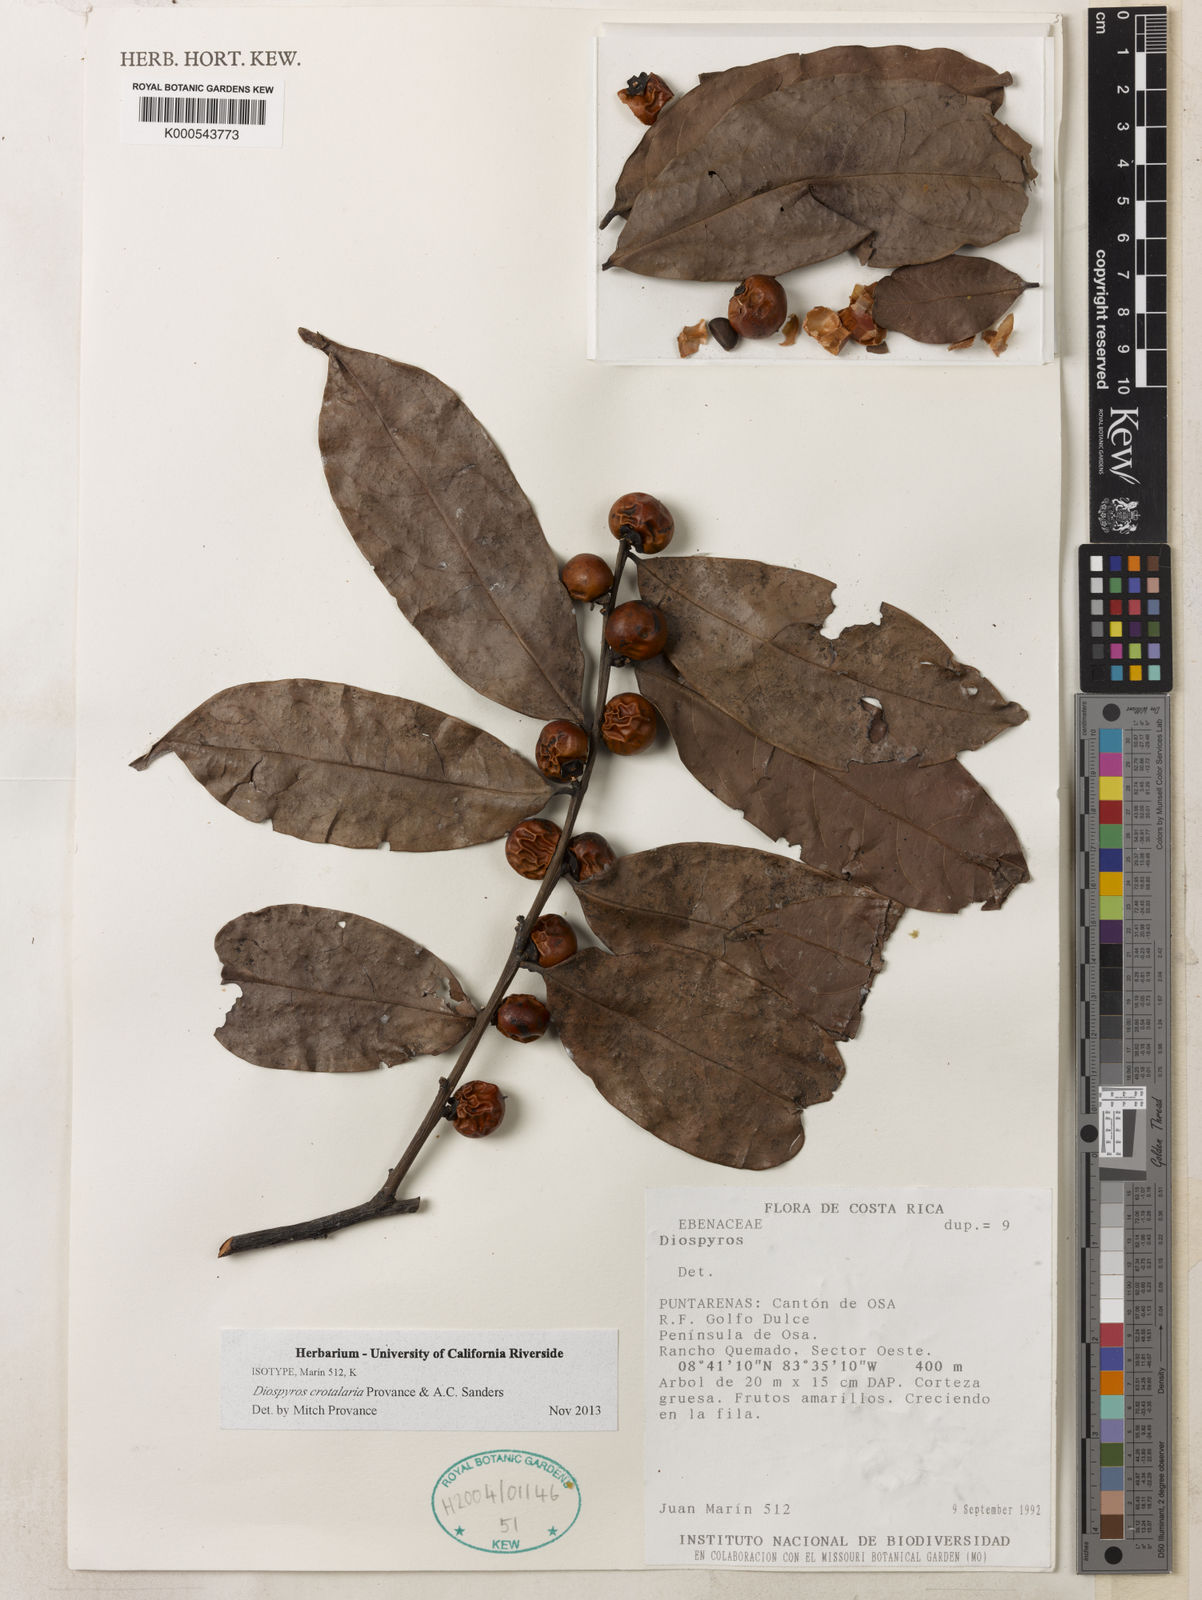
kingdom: Plantae
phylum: Tracheophyta
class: Magnoliopsida
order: Ericales
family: Ebenaceae
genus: Diospyros
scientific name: Diospyros juruensis
